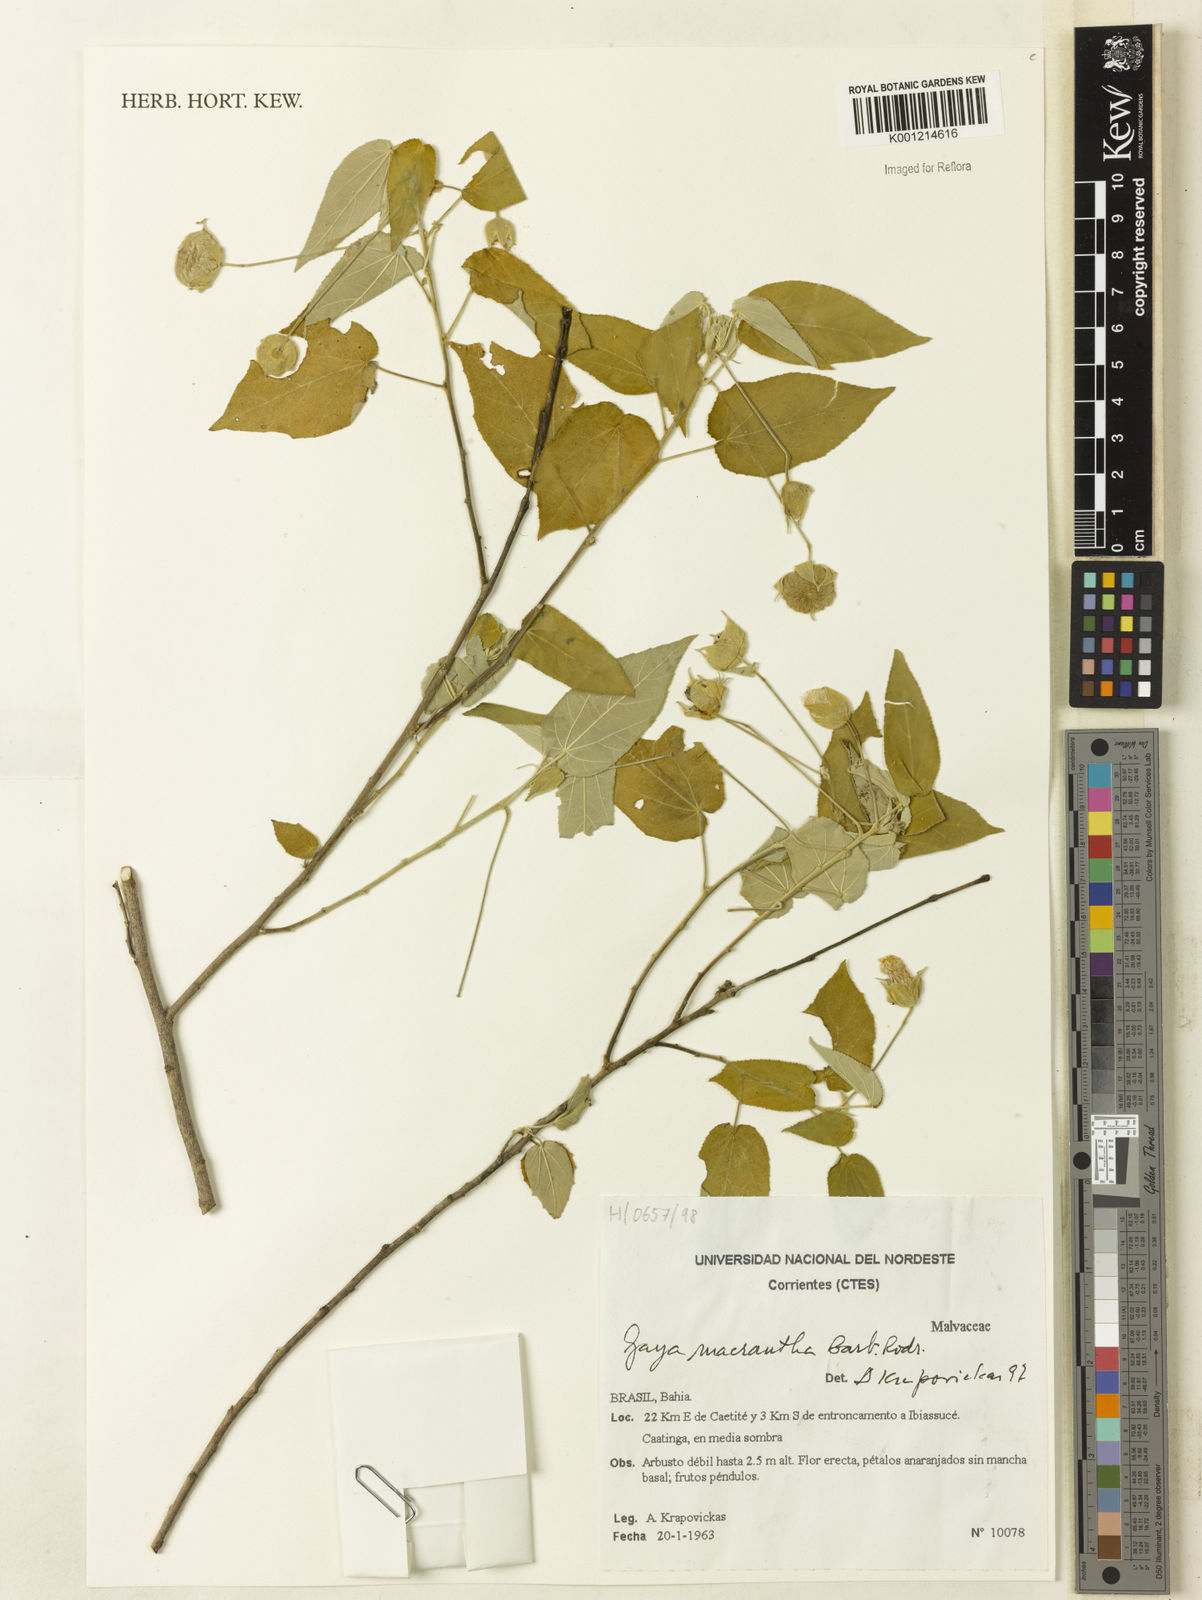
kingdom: Plantae
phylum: Tracheophyta
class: Magnoliopsida
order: Malvales
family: Malvaceae
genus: Gaya
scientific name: Gaya macrantha
